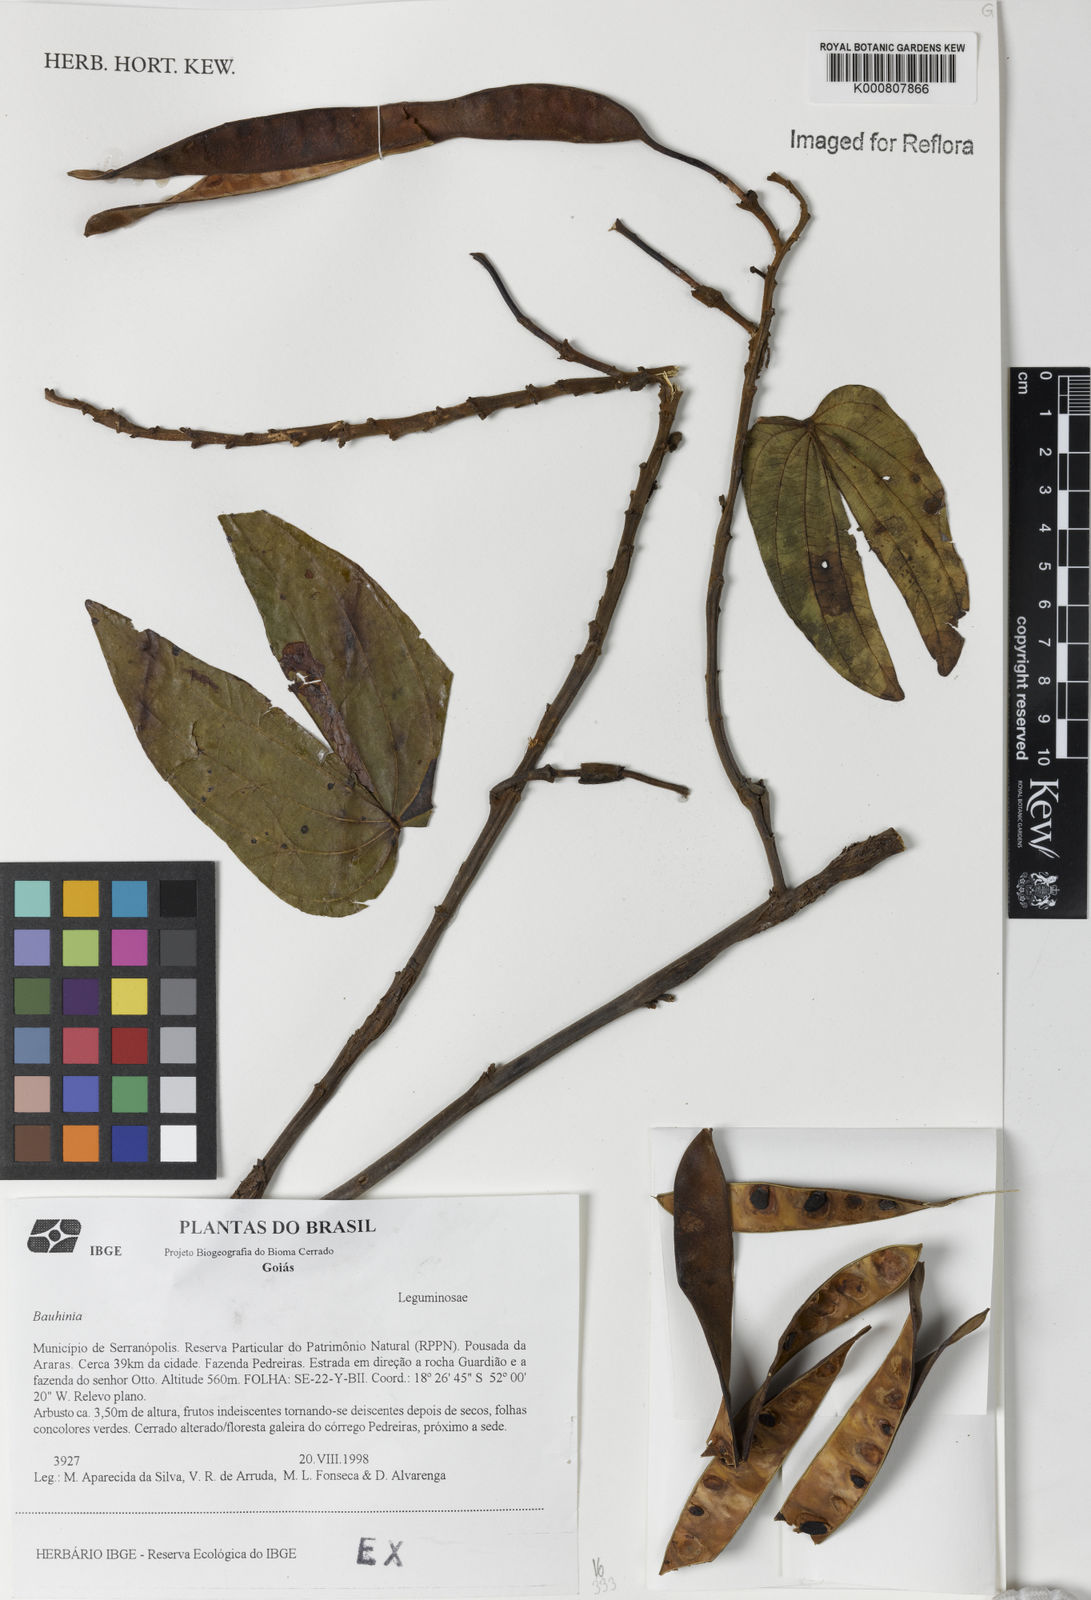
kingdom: Plantae
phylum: Tracheophyta
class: Magnoliopsida
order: Fabales
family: Fabaceae
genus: Bauhinia
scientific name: Bauhinia
